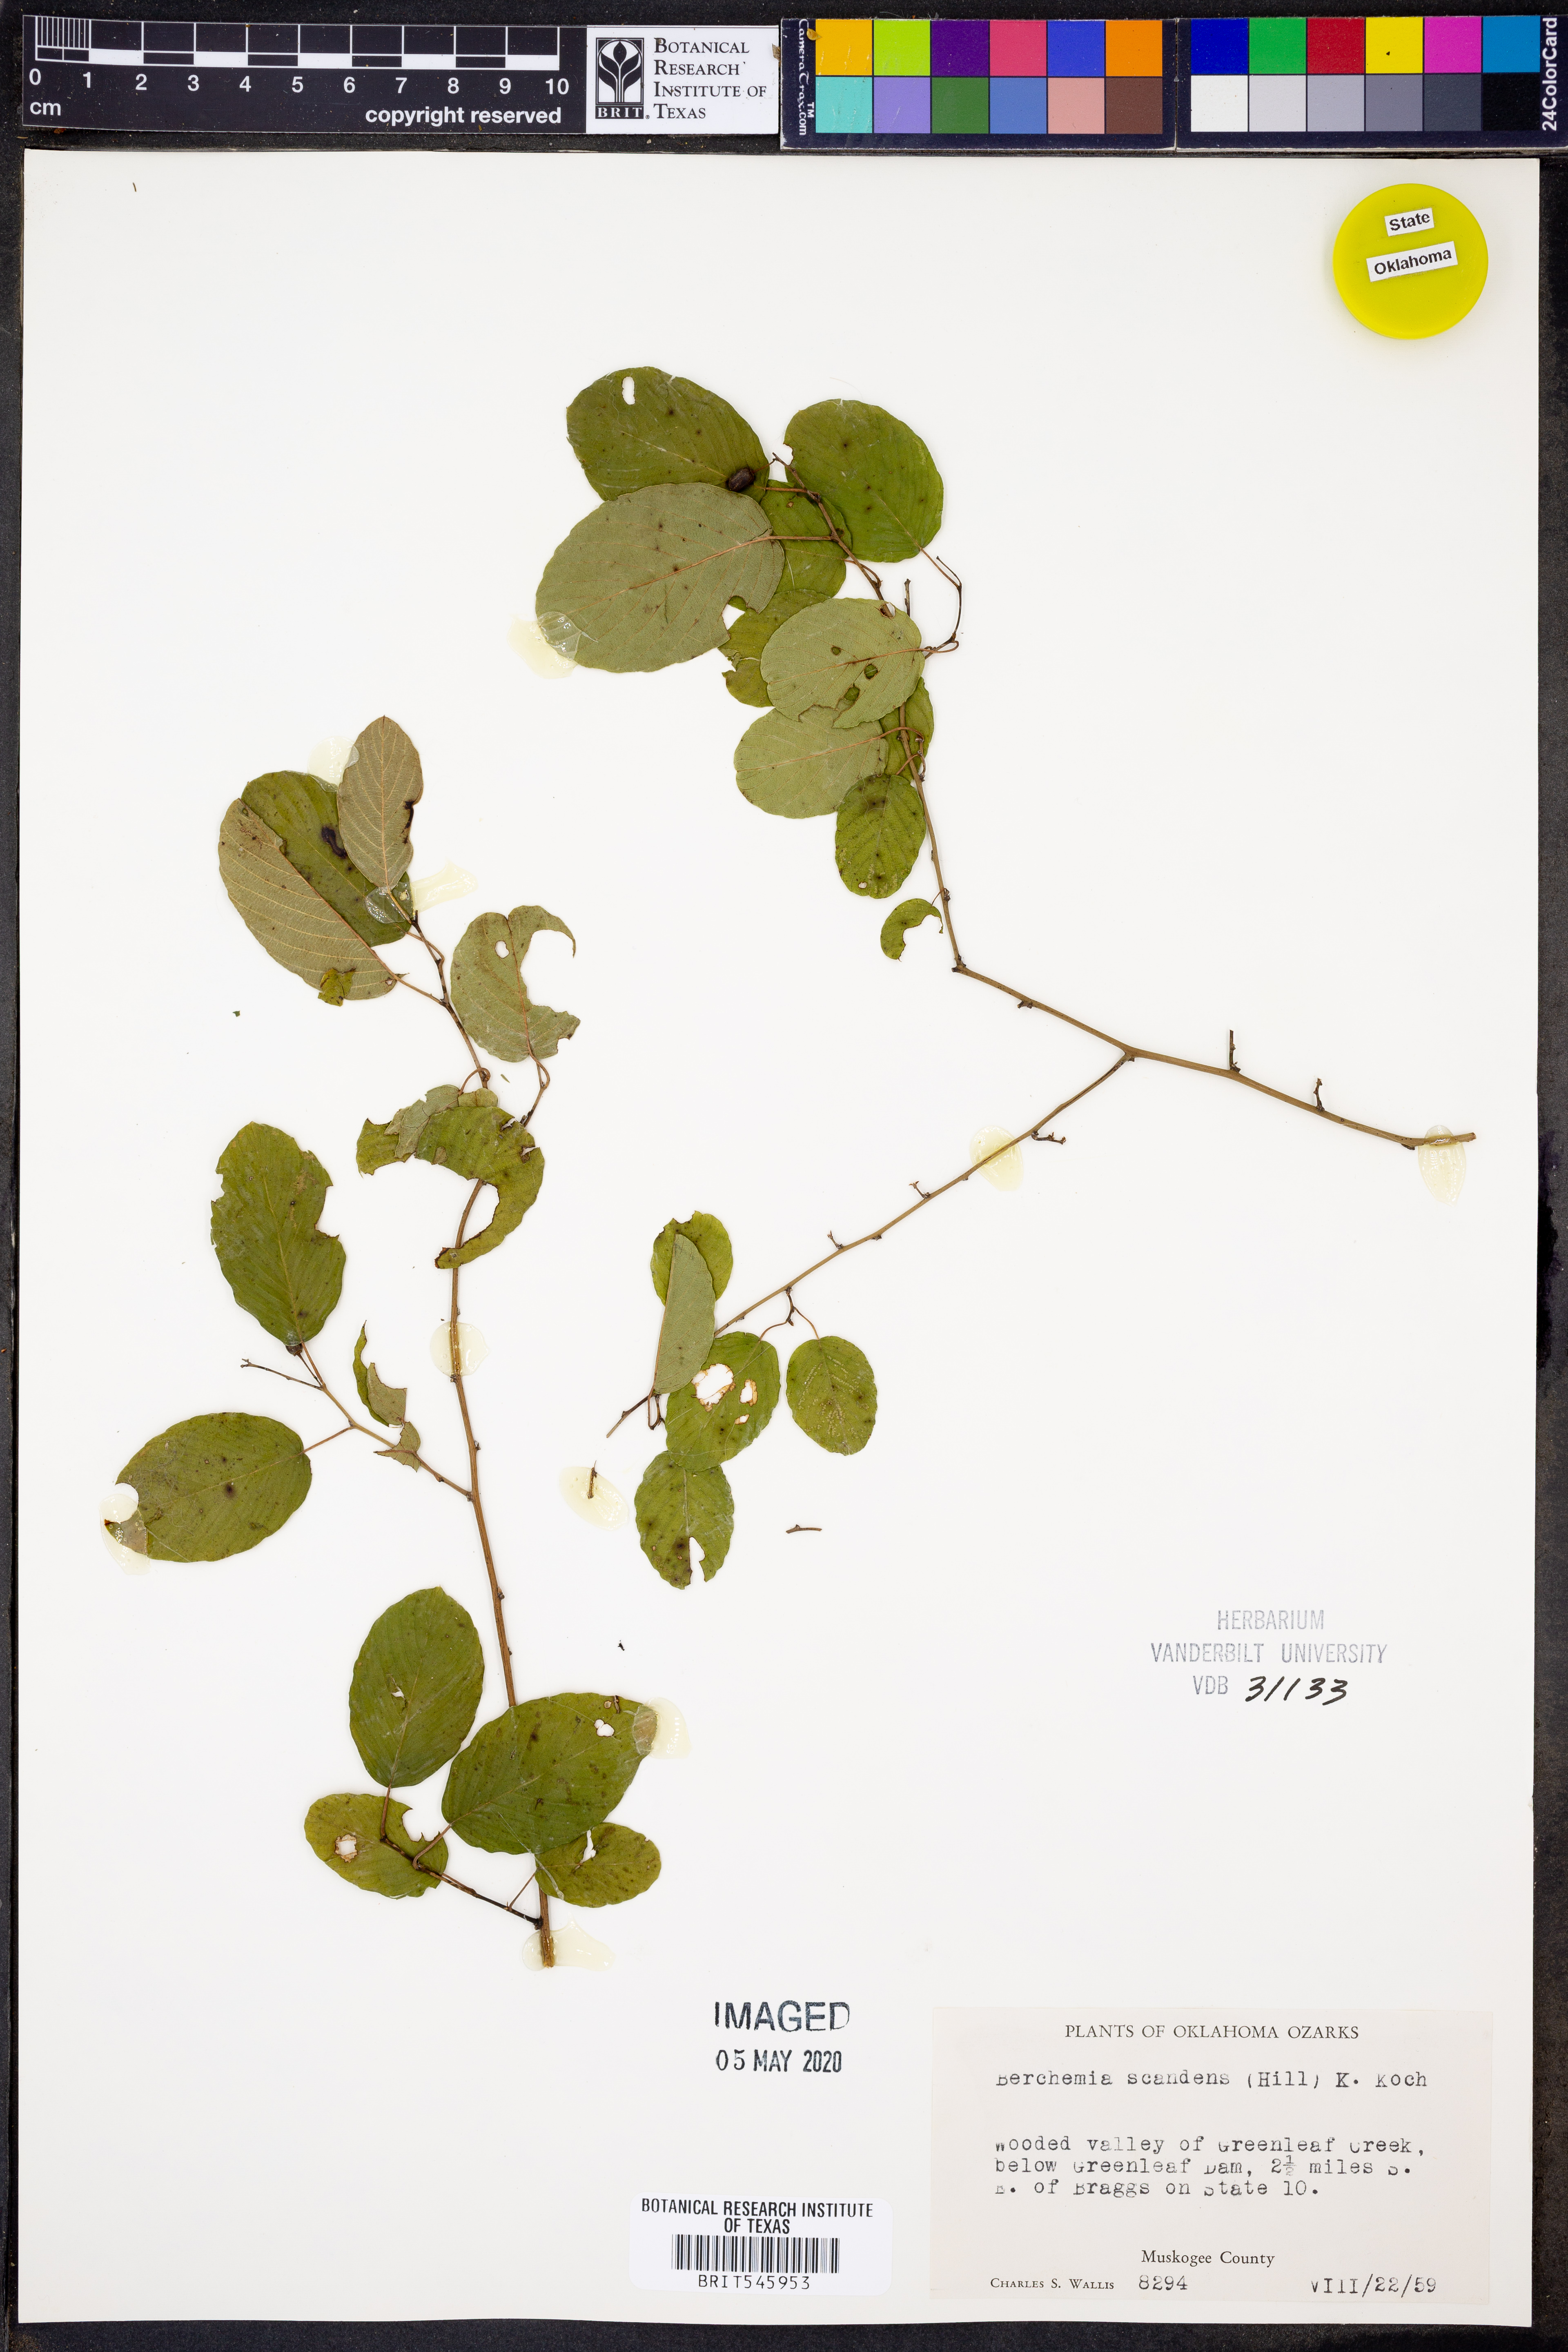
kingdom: Plantae
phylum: Tracheophyta
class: Magnoliopsida
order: Rosales
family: Rhamnaceae
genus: Berchemia
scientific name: Berchemia scandens
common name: Supplejack
